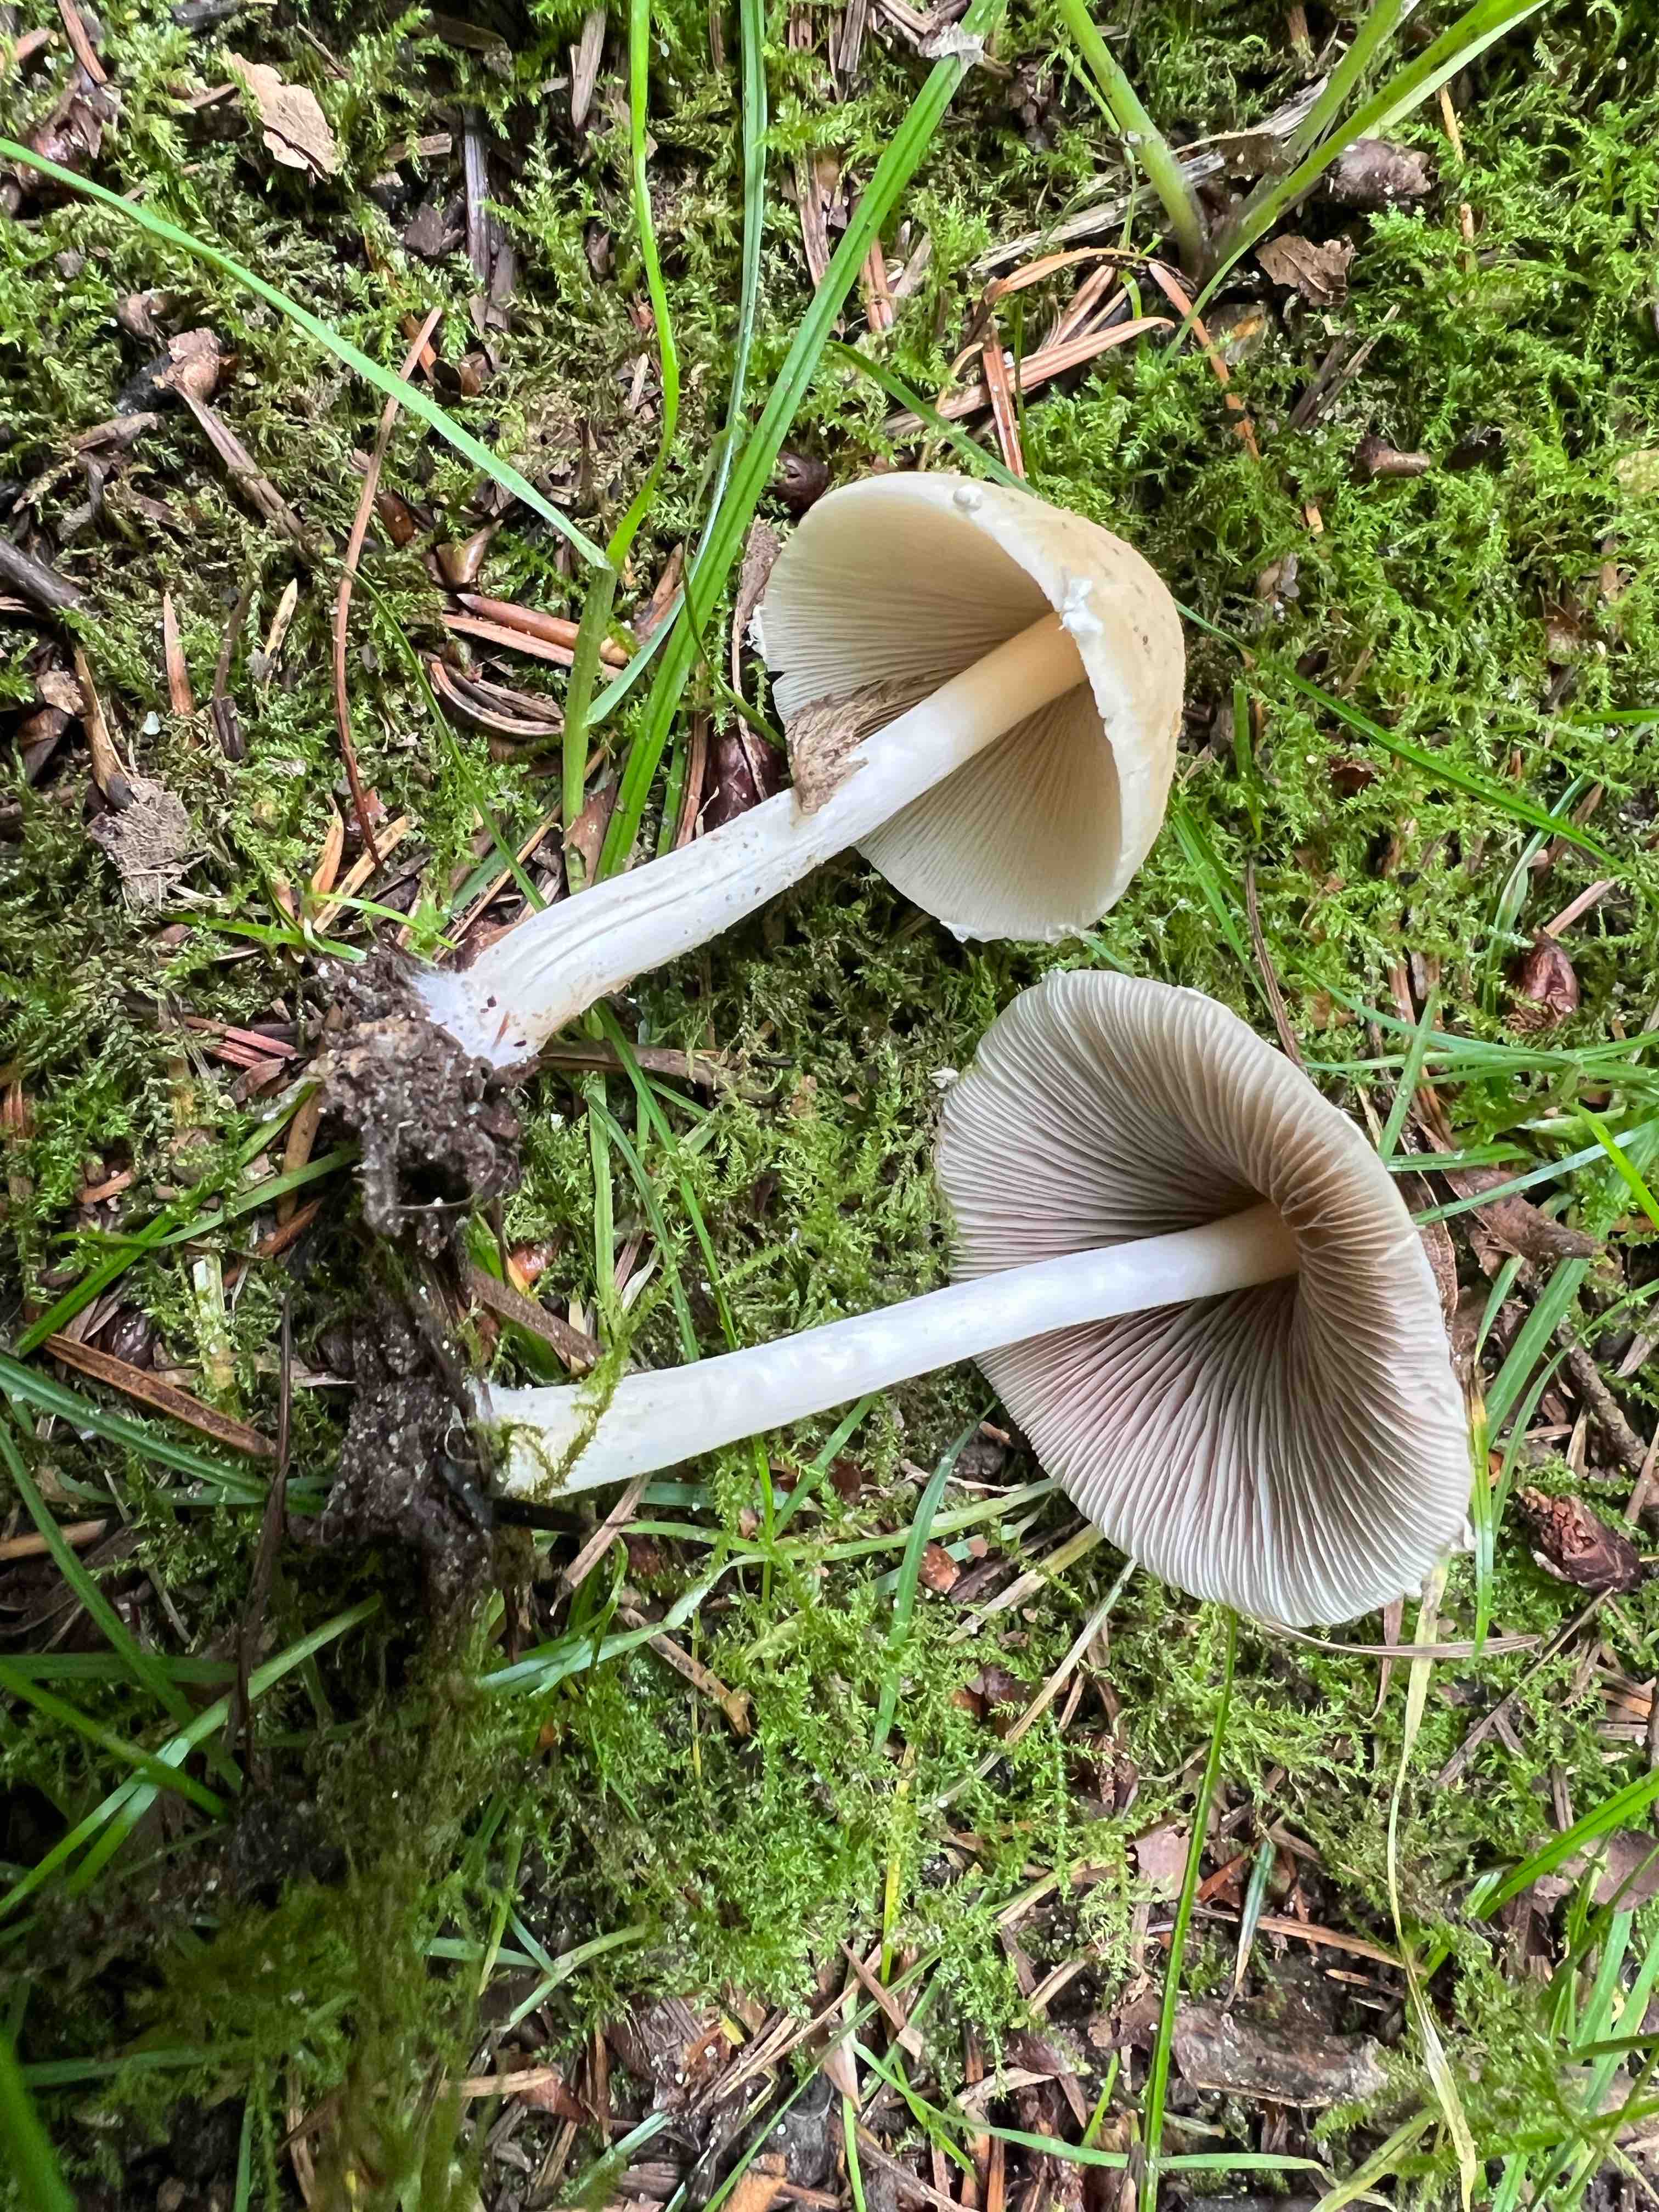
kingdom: Fungi
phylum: Basidiomycota
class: Agaricomycetes
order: Agaricales
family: Psathyrellaceae
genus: Candolleomyces
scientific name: Candolleomyces candolleanus
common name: Candolles mørkhat
